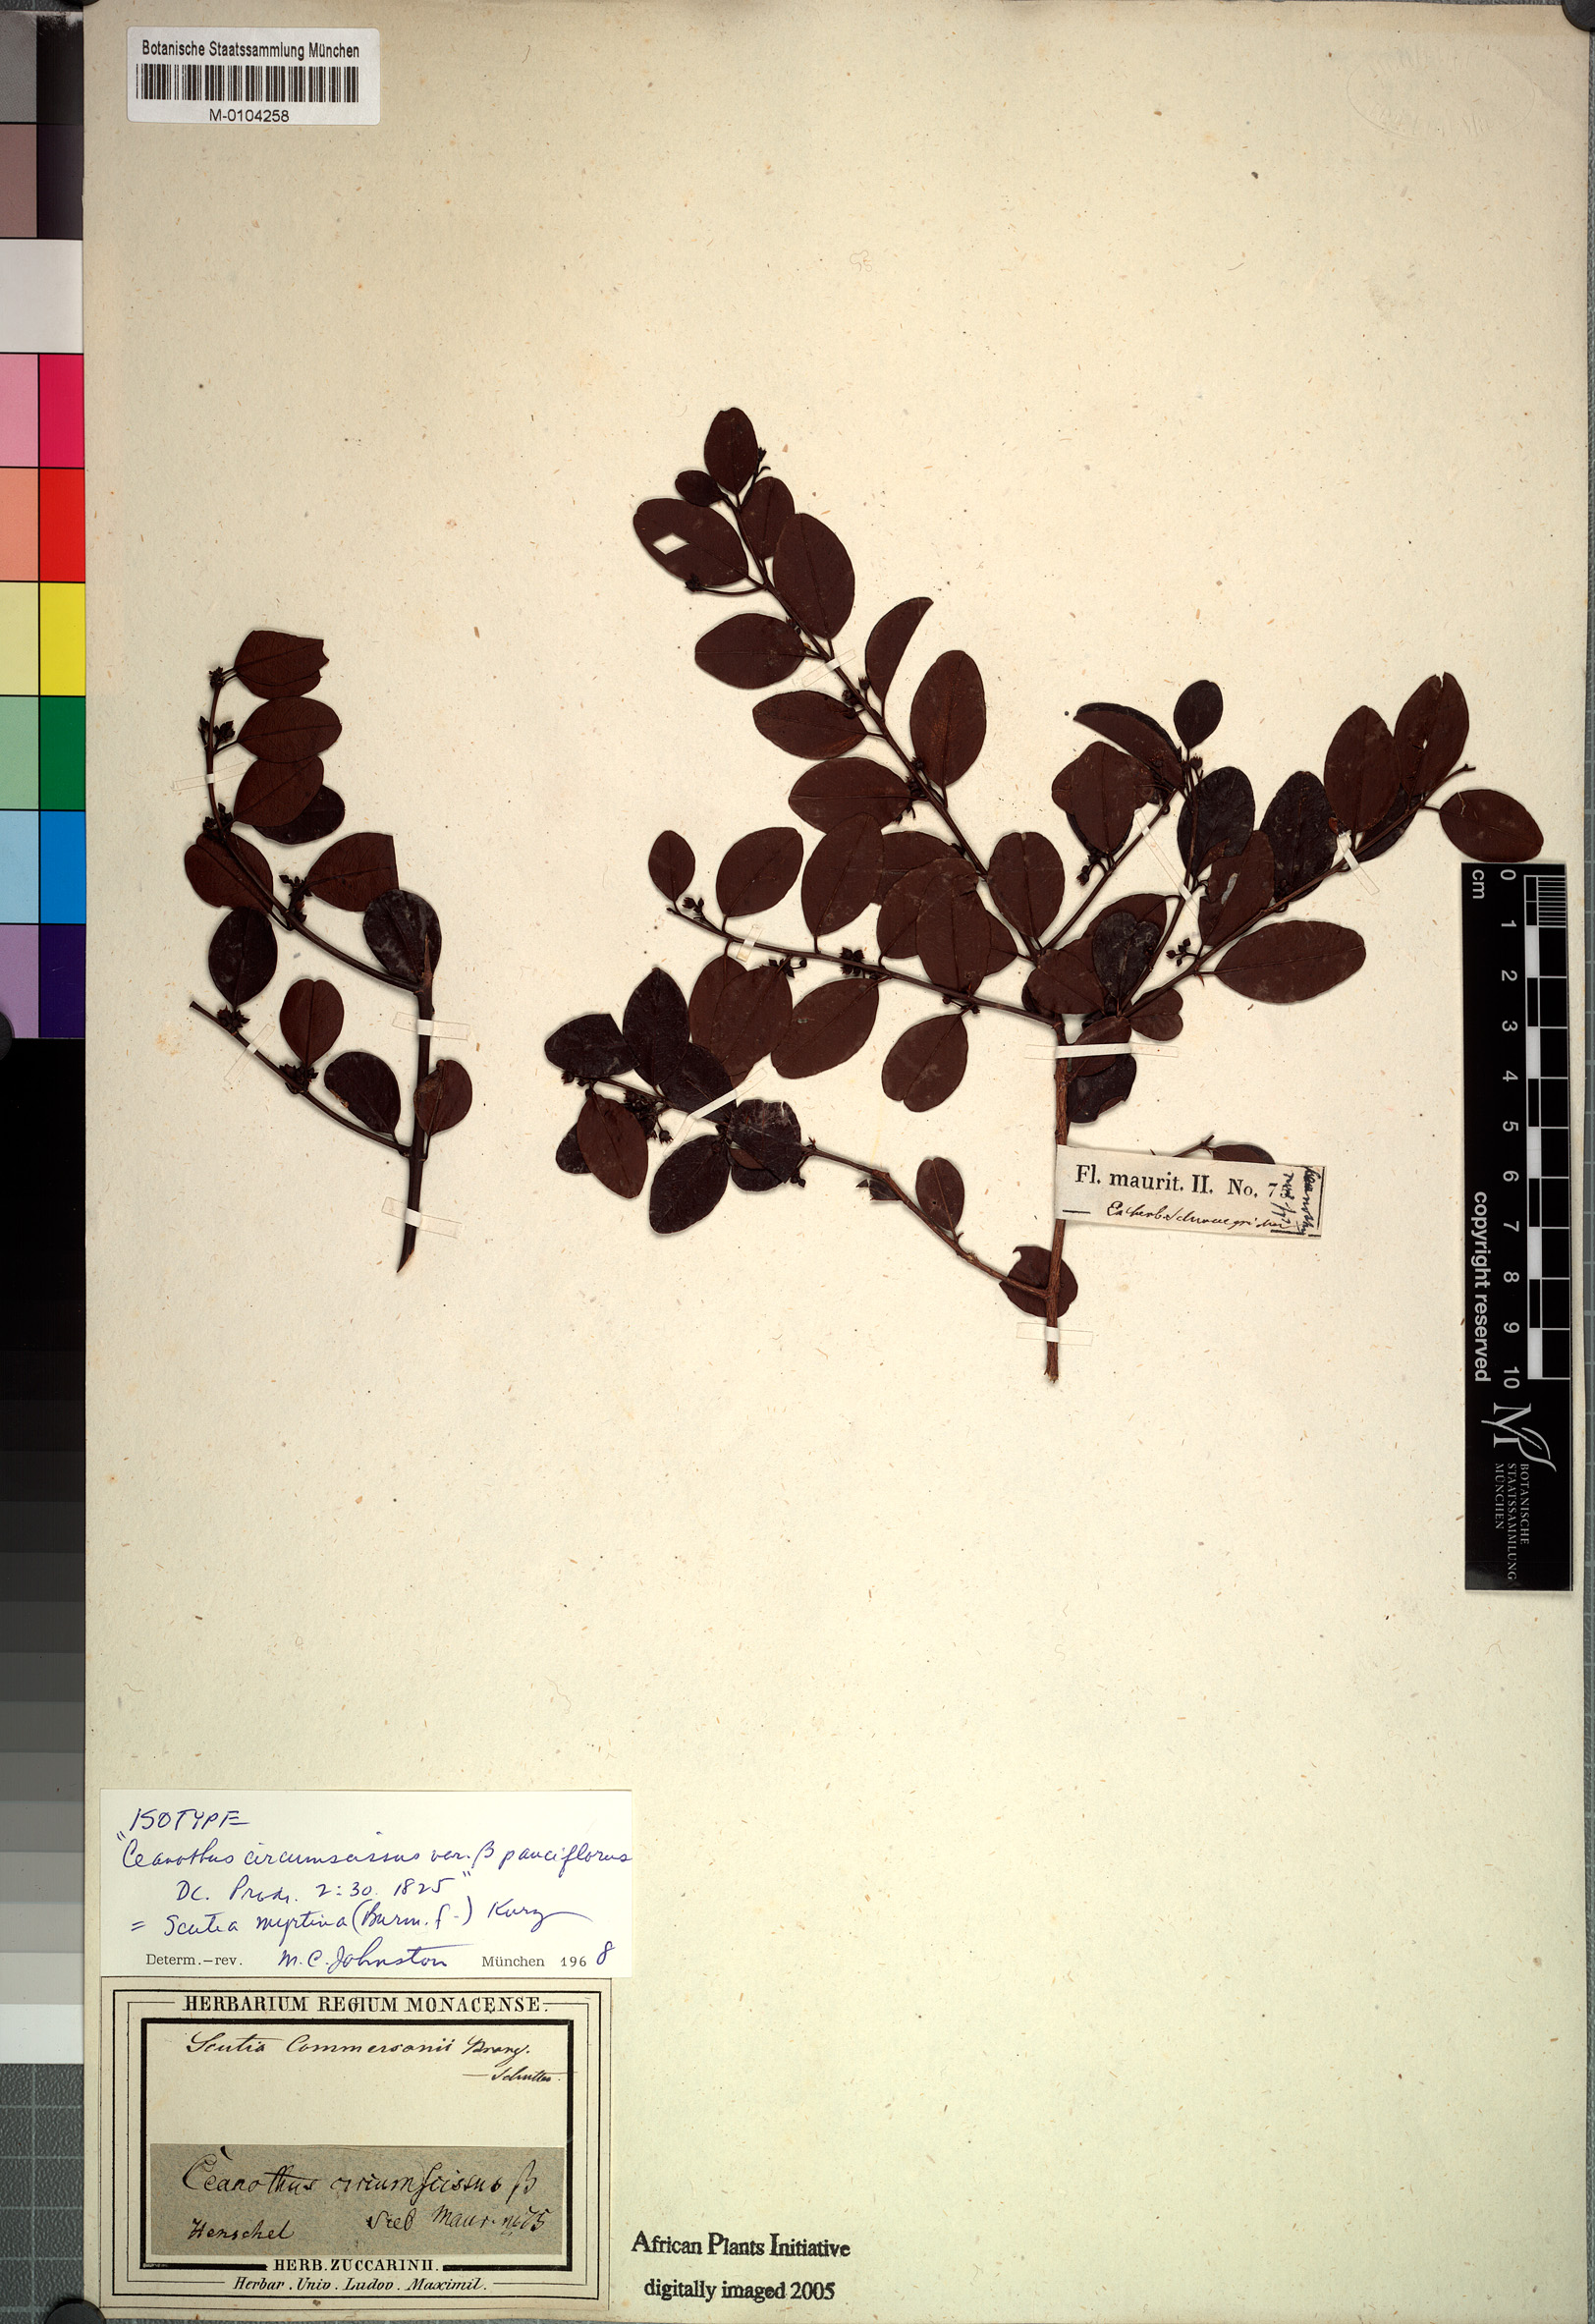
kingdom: Plantae
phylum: Tracheophyta
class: Magnoliopsida
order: Rosales
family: Rhamnaceae
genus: Scutia
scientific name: Scutia myrtina
